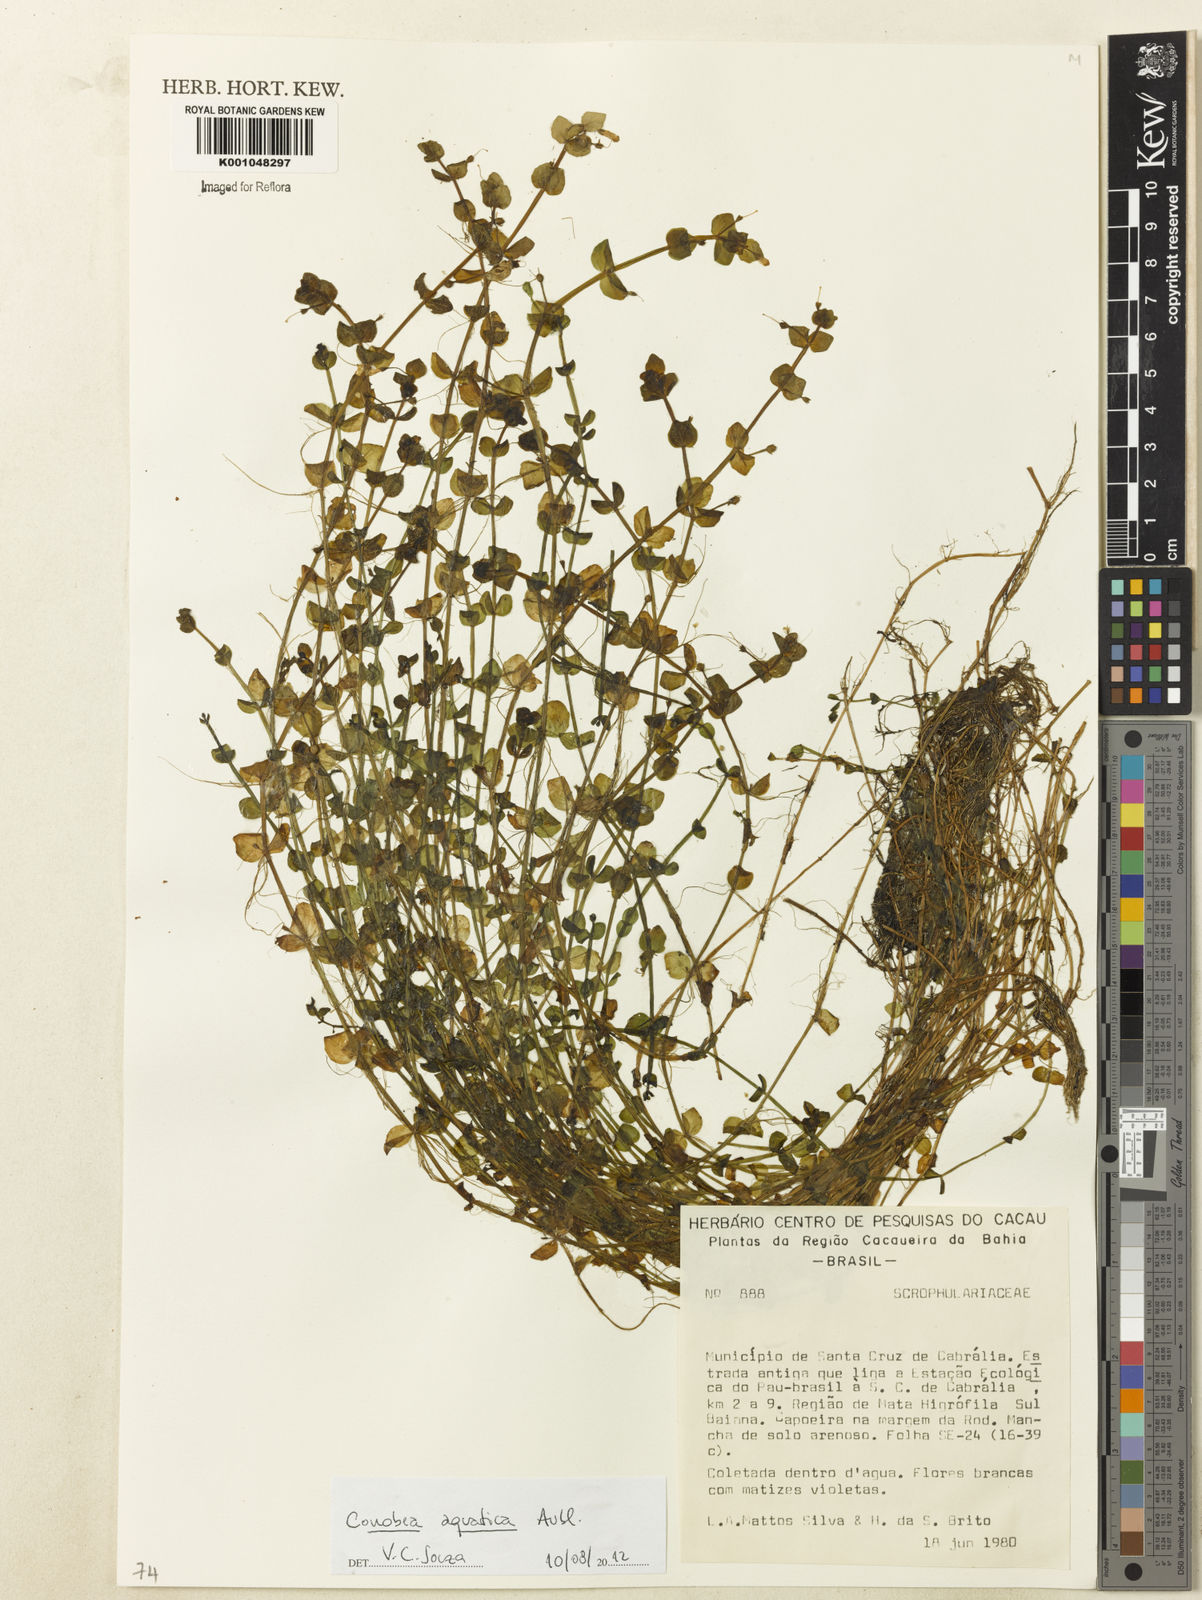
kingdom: Plantae
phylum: Tracheophyta
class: Magnoliopsida
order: Lamiales
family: Plantaginaceae
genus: Conobea
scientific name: Conobea aquatica
